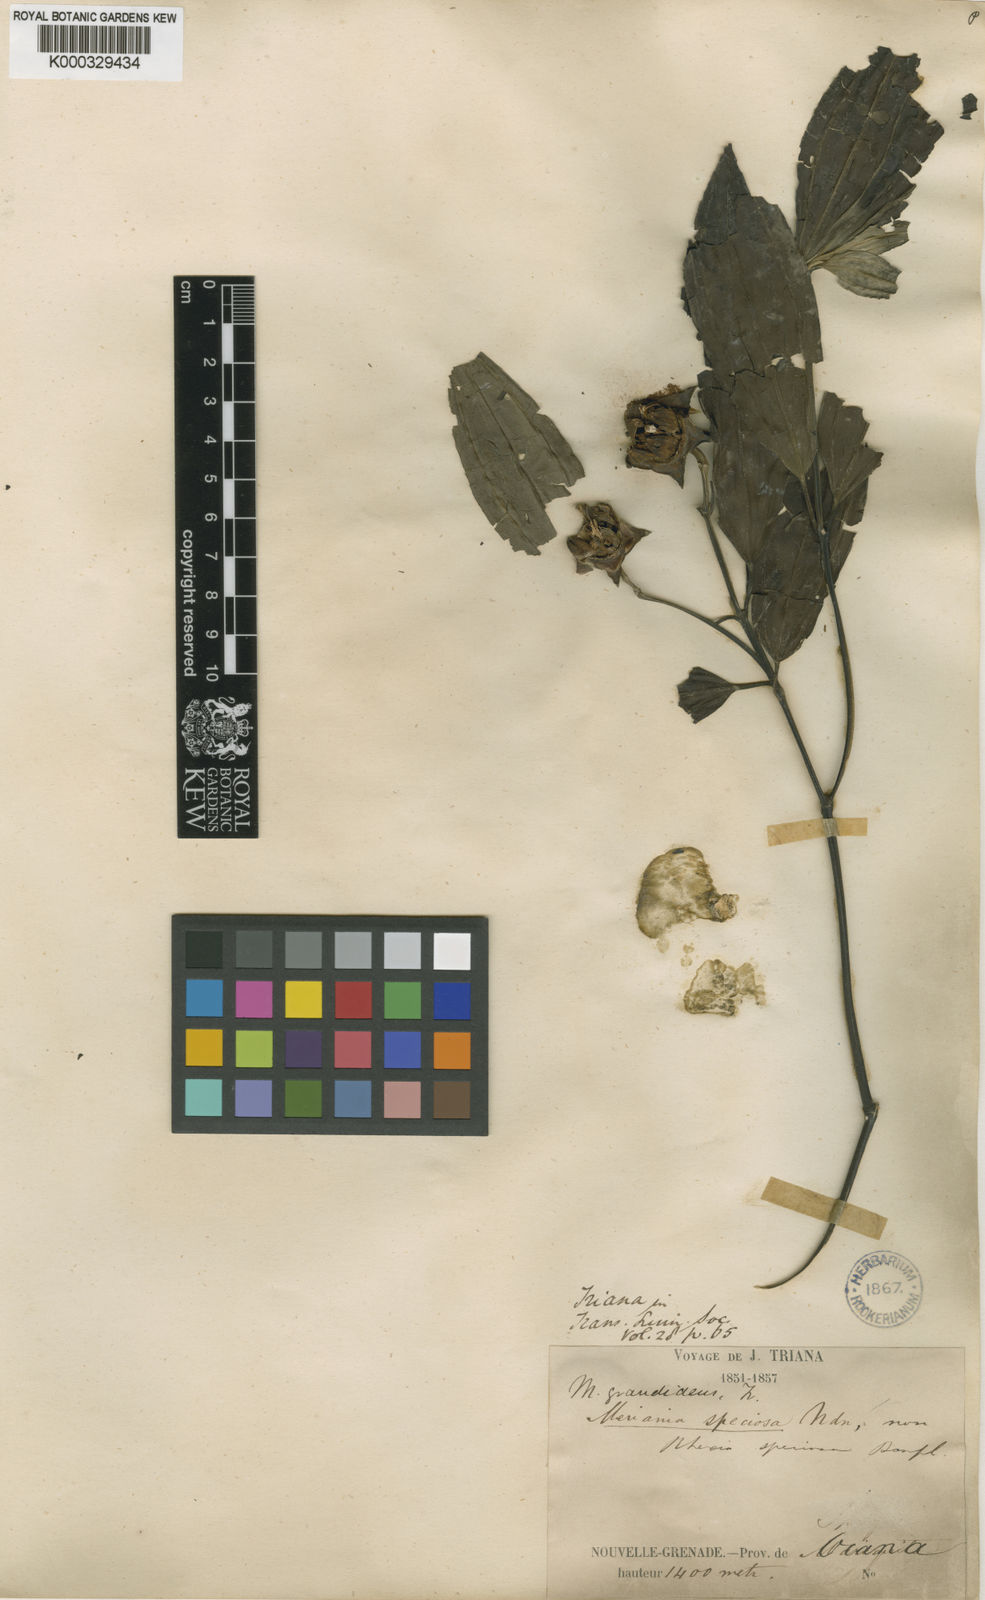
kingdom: Plantae
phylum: Tracheophyta
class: Magnoliopsida
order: Myrtales
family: Melastomataceae
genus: Meriania
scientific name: Meriania grandidens
